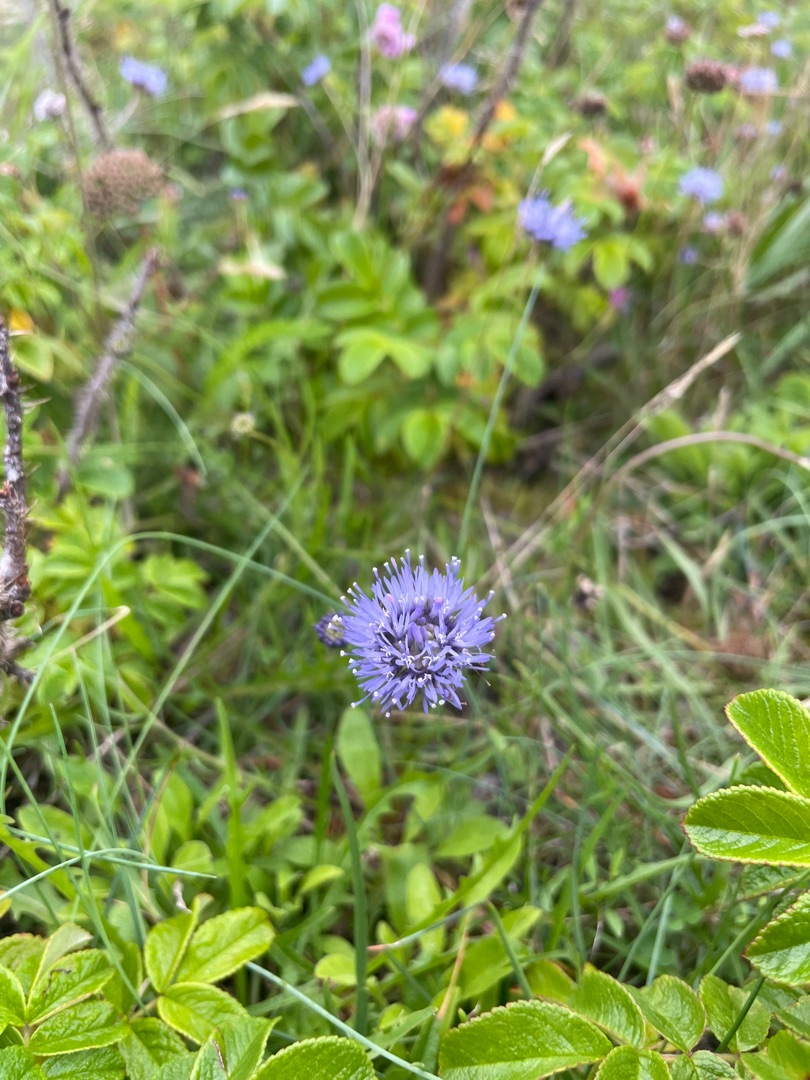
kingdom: Plantae
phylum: Tracheophyta
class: Magnoliopsida
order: Asterales
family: Campanulaceae
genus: Jasione
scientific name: Jasione montana
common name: Blåmunke
